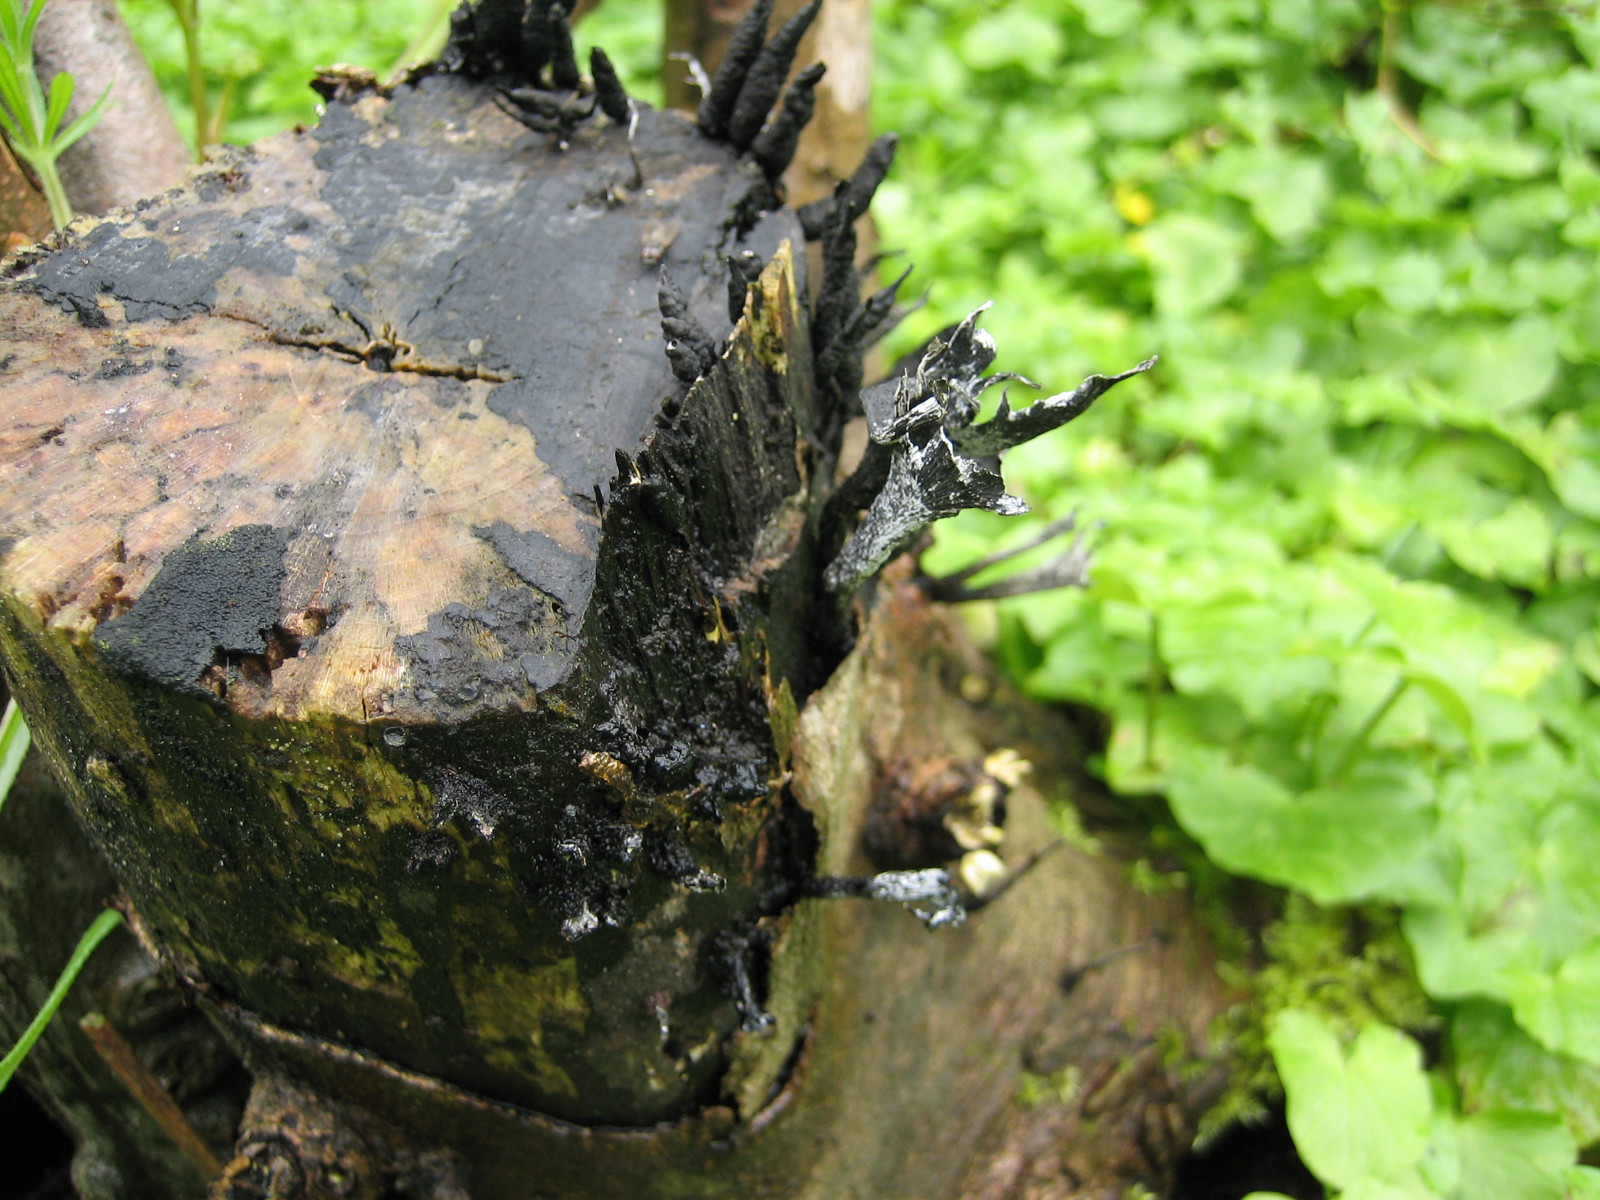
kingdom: Fungi
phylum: Ascomycota
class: Sordariomycetes
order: Xylariales
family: Xylariaceae
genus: Xylaria
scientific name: Xylaria hypoxylon
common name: grenet stødsvamp
